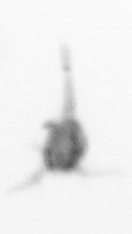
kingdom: Animalia
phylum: Arthropoda
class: Copepoda
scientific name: Copepoda
